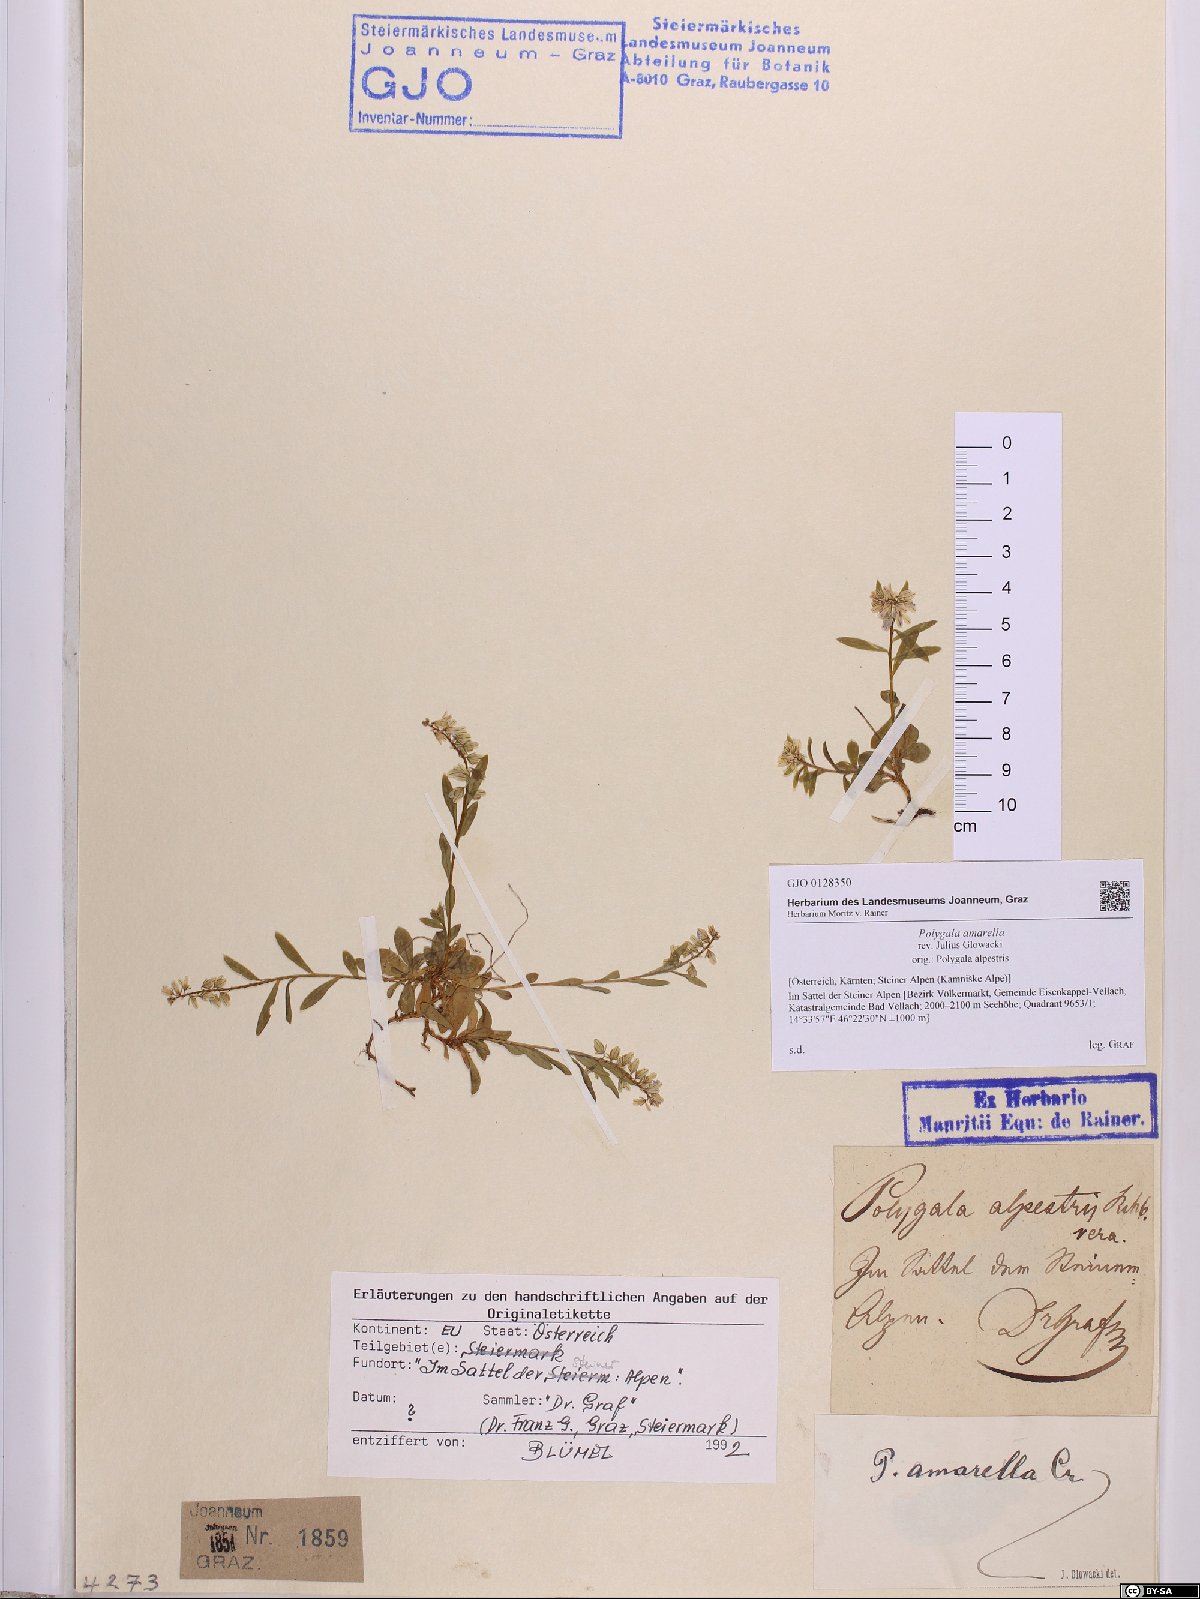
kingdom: Plantae
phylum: Tracheophyta
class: Magnoliopsida
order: Fabales
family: Polygalaceae
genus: Polygala
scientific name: Polygala amarella
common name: Dwarf milkwort
